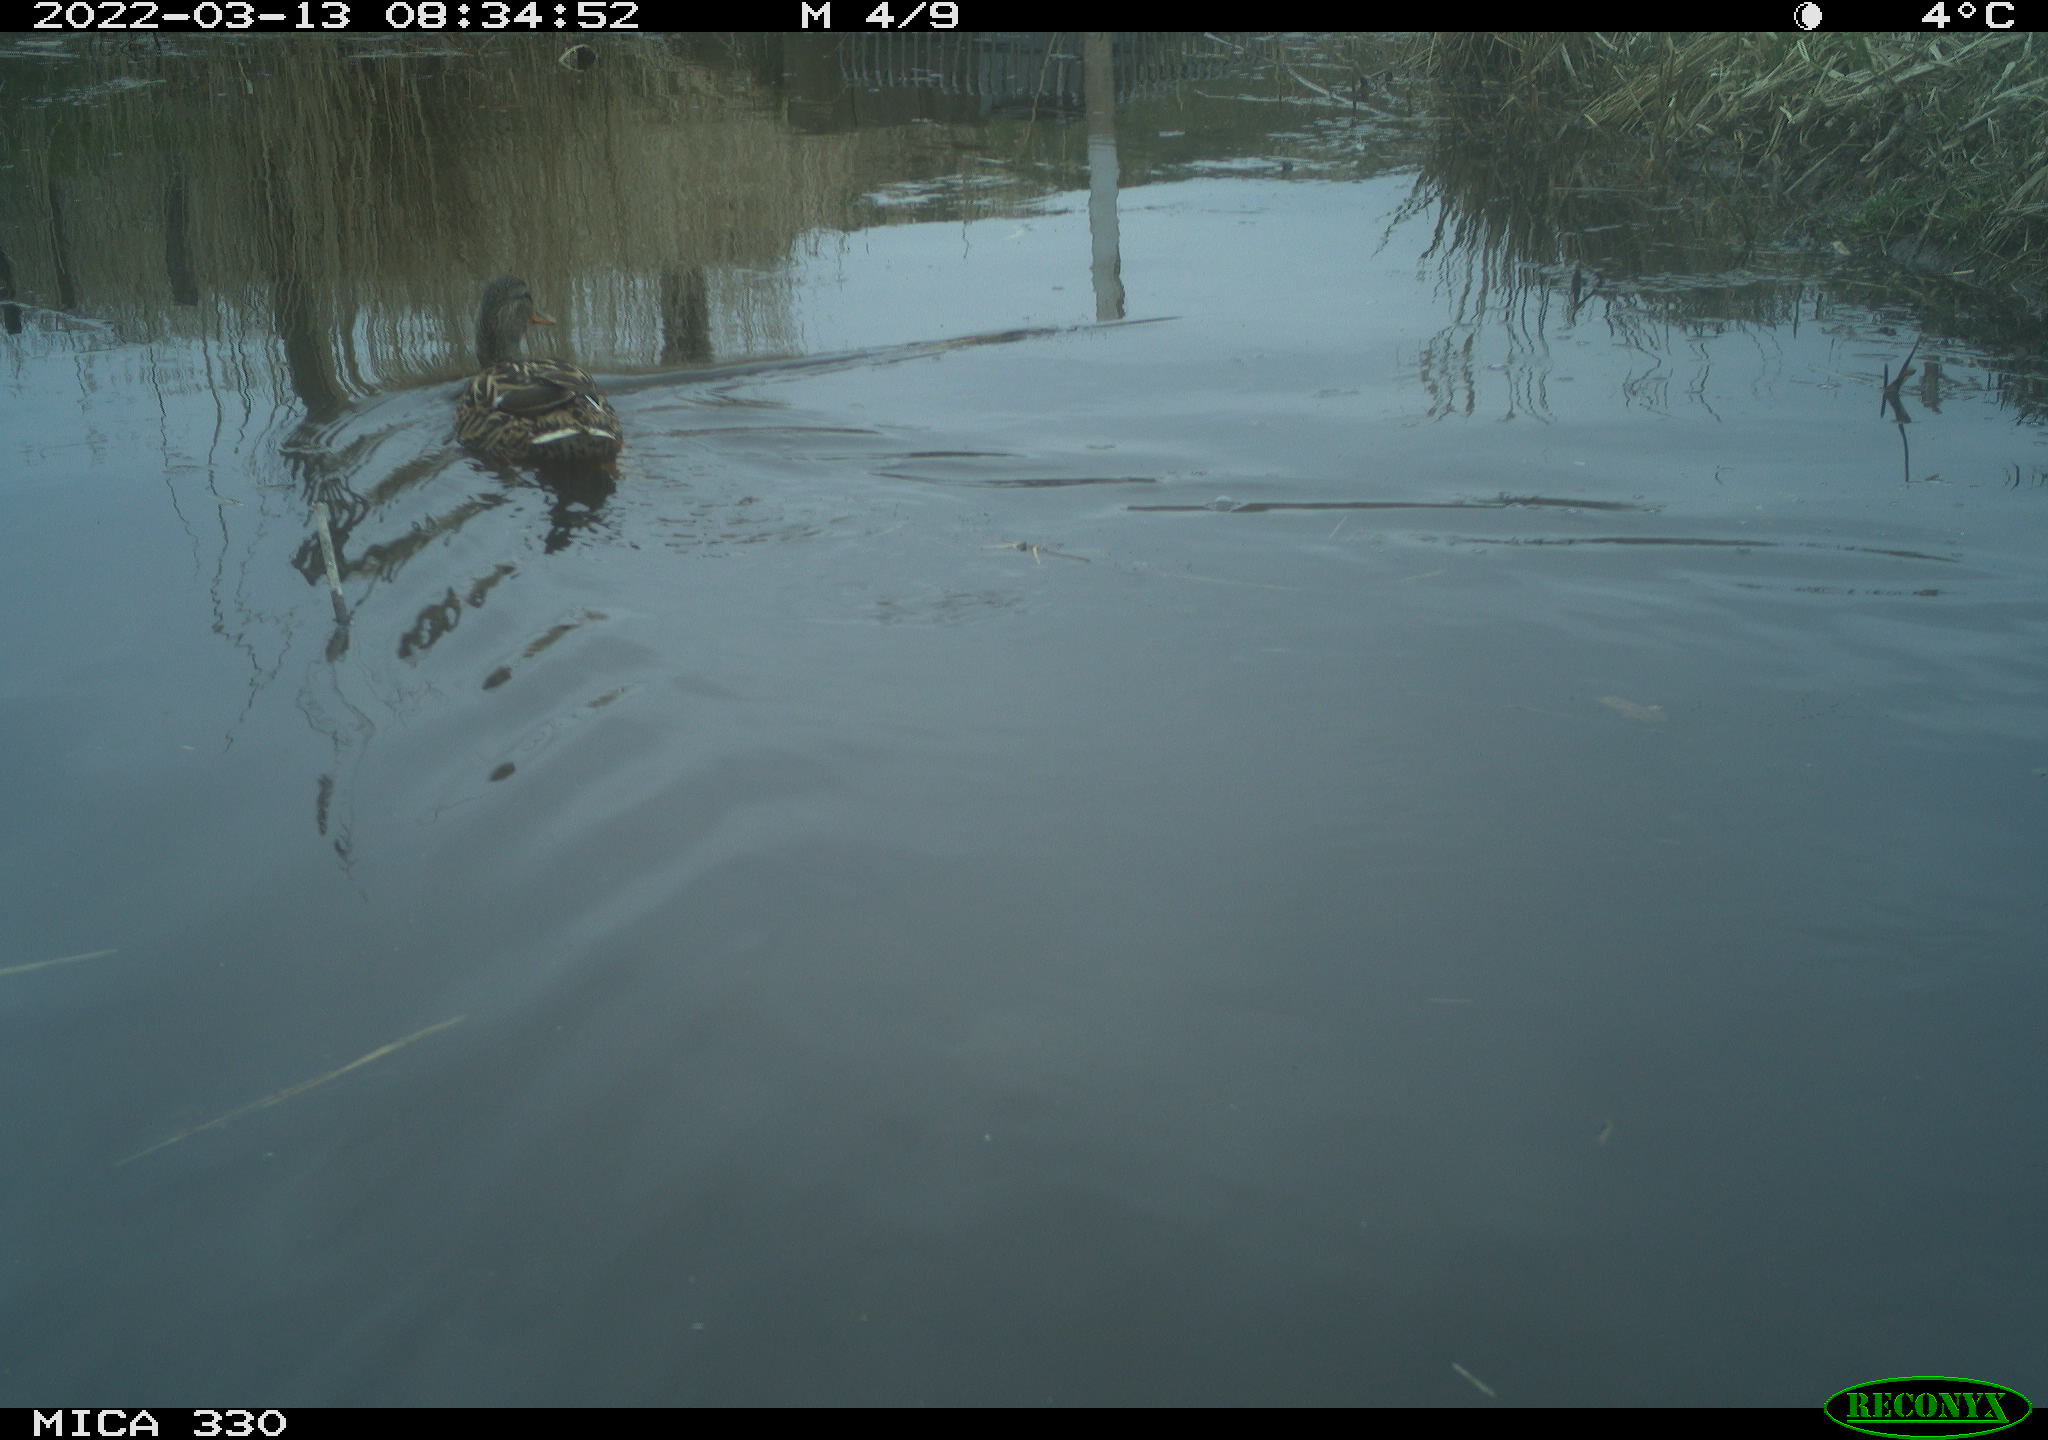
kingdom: Animalia
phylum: Chordata
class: Aves
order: Anseriformes
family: Anatidae
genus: Anas
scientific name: Anas platyrhynchos
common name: Mallard
